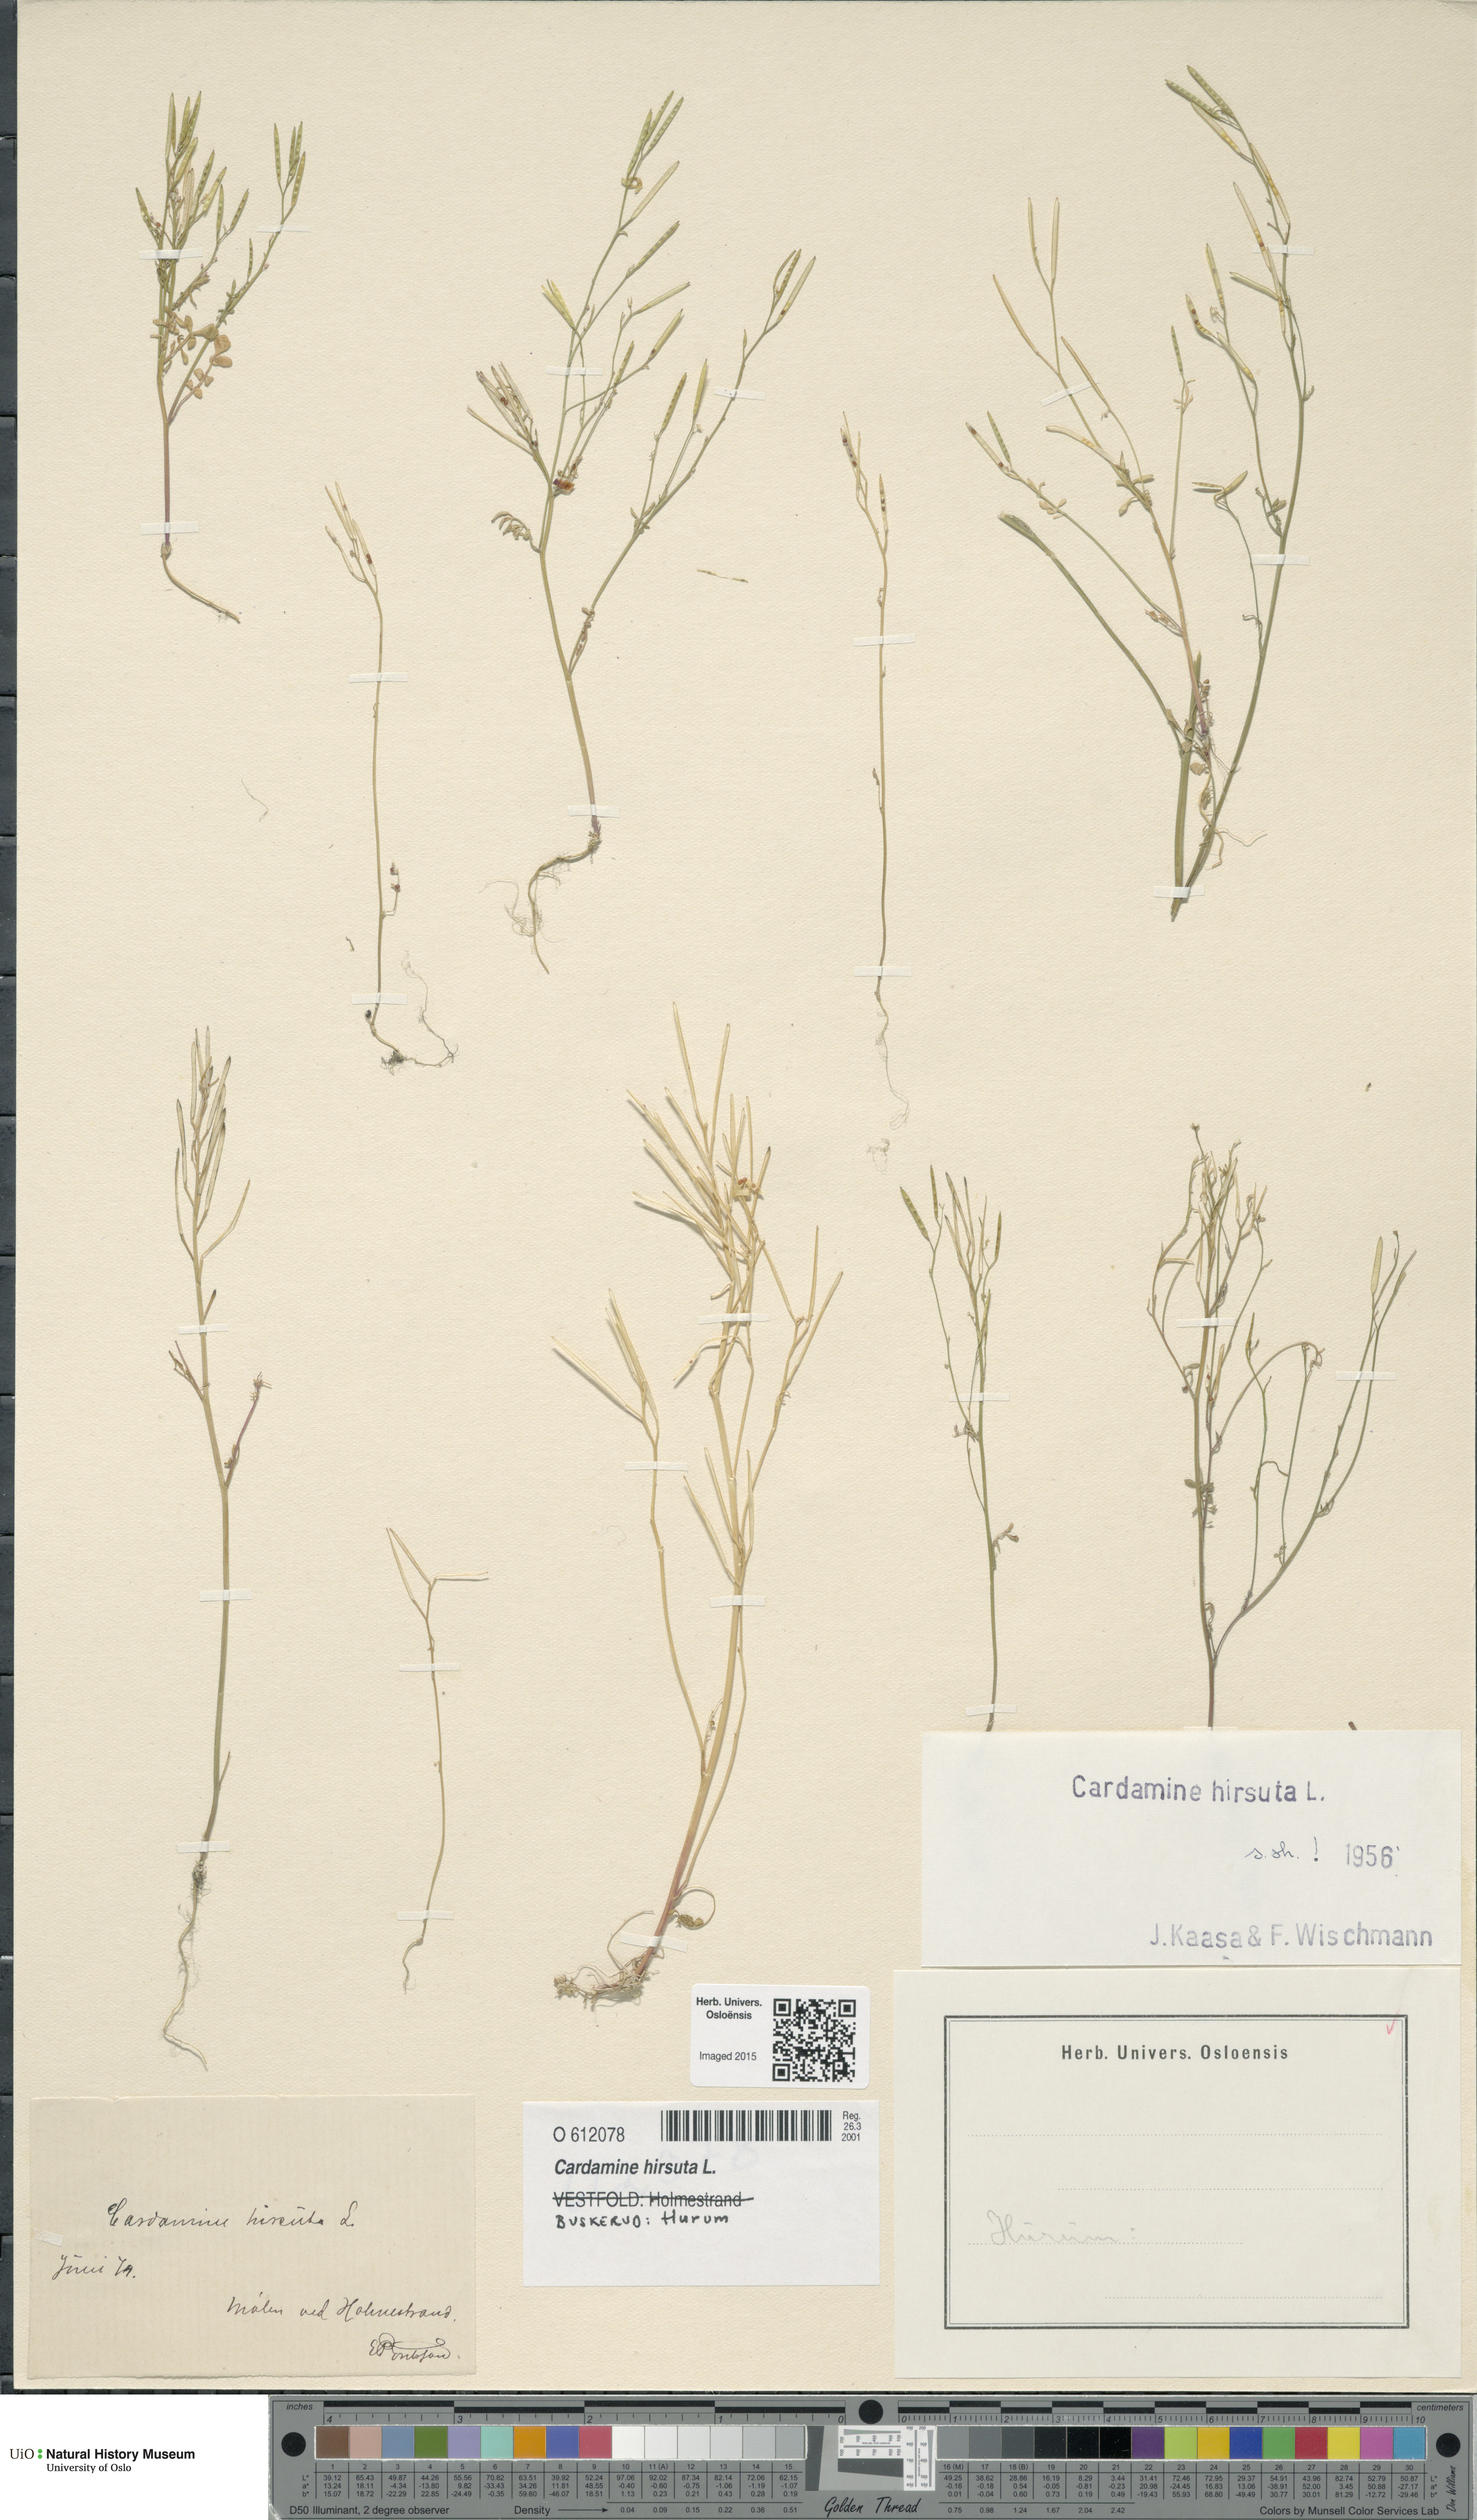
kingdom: Plantae
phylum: Tracheophyta
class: Magnoliopsida
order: Brassicales
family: Brassicaceae
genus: Cardamine
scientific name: Cardamine hirsuta
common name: Hairy bittercress
